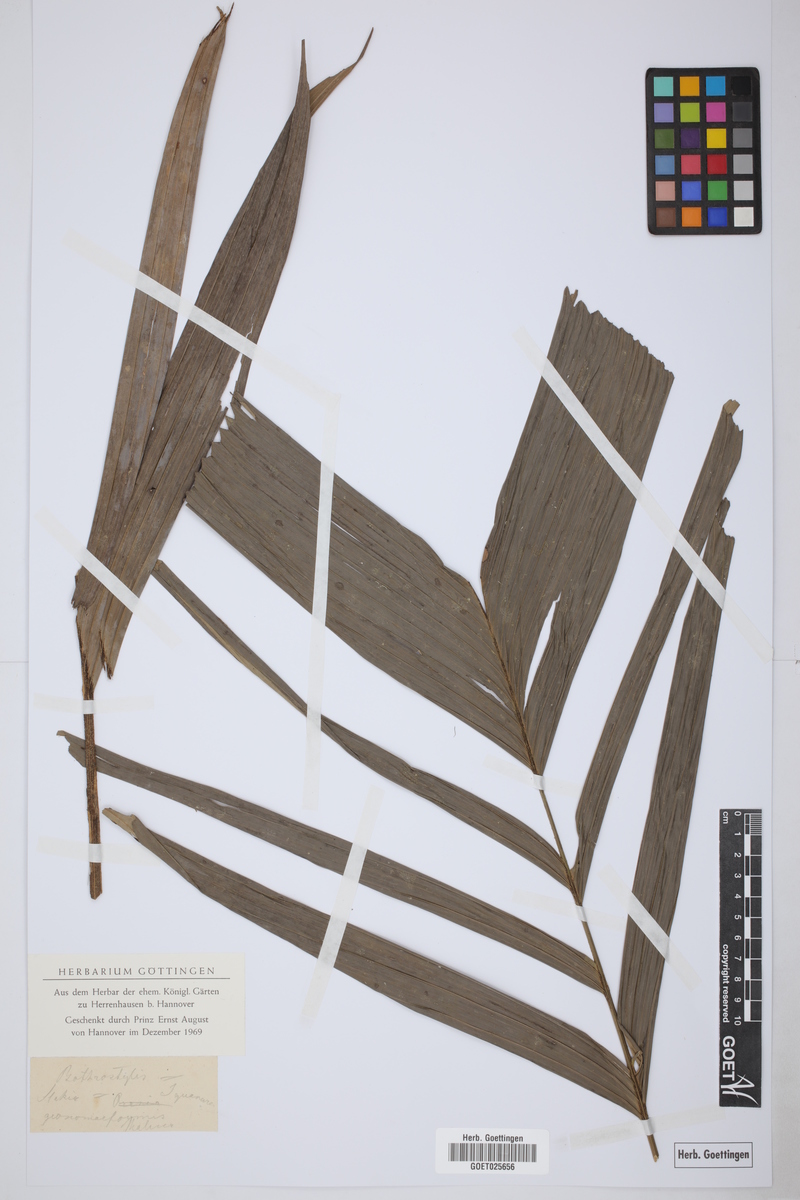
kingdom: Plantae
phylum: Tracheophyta
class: Liliopsida
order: Arecales
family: Arecaceae
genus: Iguanura
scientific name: Iguanura geonomiformis
